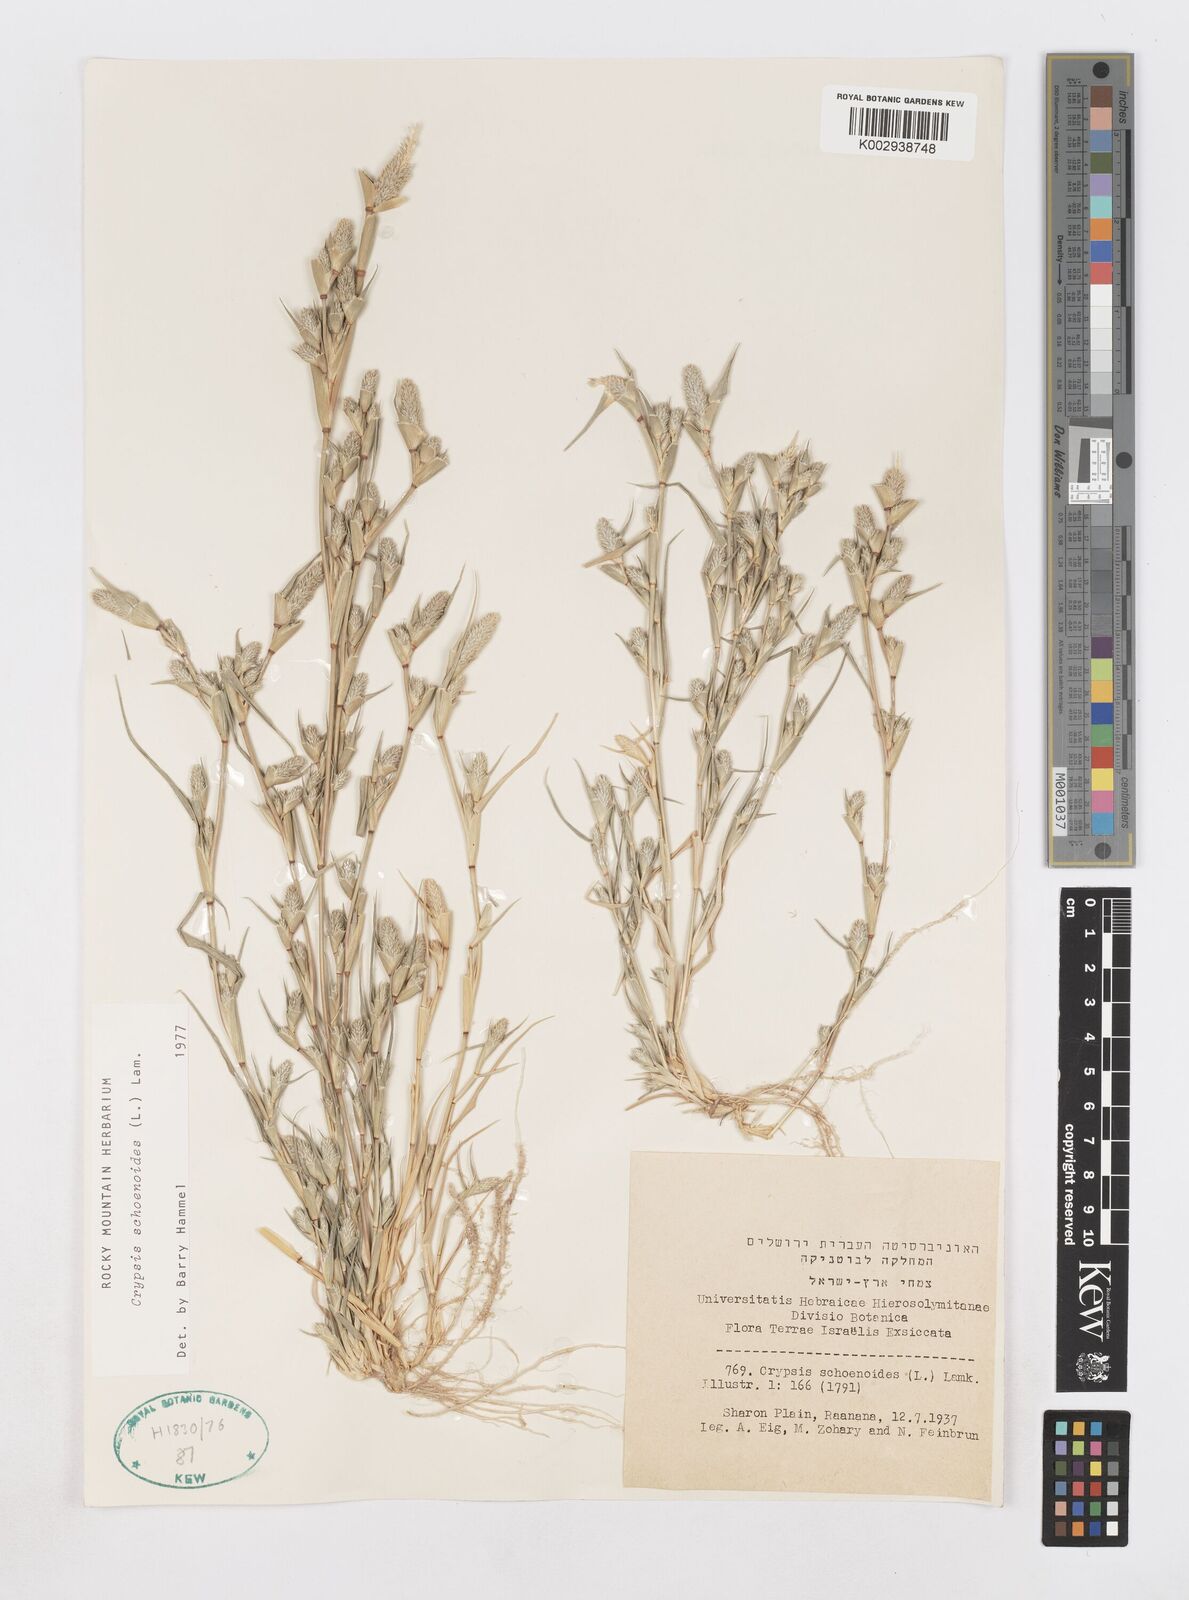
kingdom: Plantae
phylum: Tracheophyta
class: Liliopsida
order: Poales
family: Poaceae
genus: Sporobolus
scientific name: Sporobolus schoenoides
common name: Rush-like timothy
